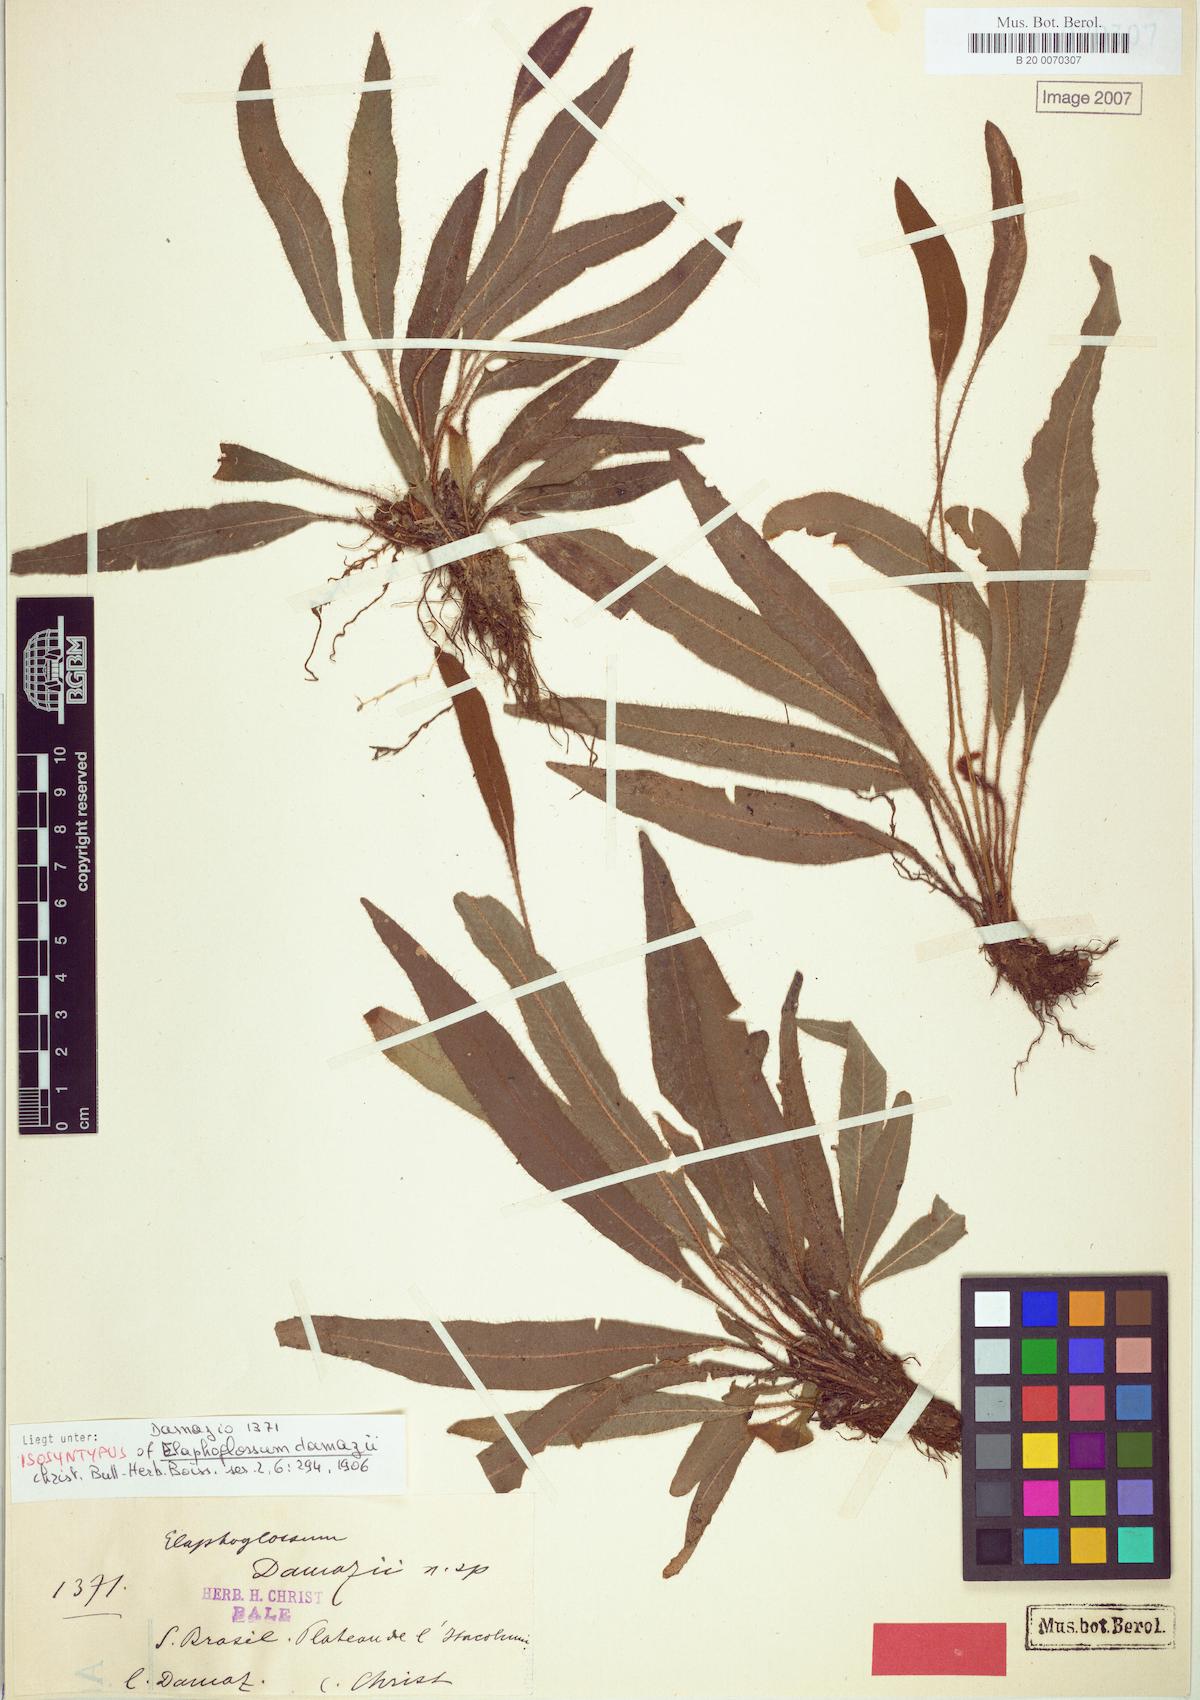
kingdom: Plantae
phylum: Tracheophyta
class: Polypodiopsida
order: Polypodiales
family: Dryopteridaceae
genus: Elaphoglossum
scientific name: Elaphoglossum acrocarpum
